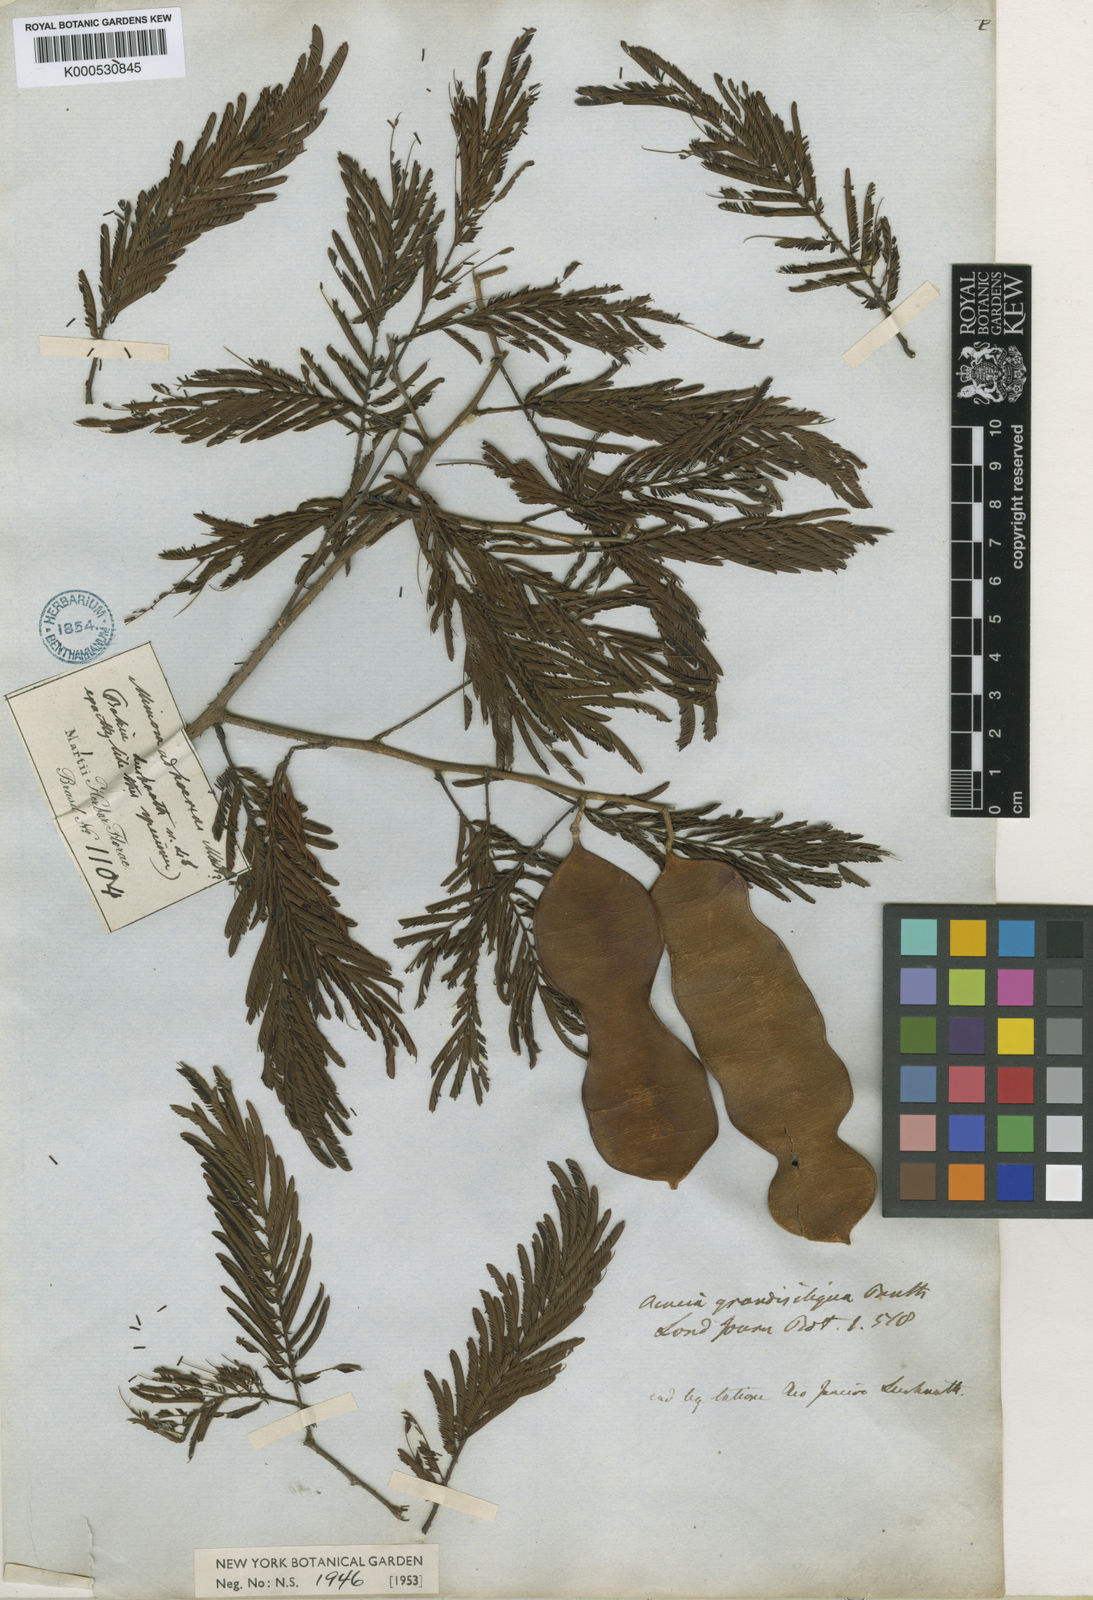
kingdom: Plantae
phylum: Tracheophyta
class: Magnoliopsida
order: Fabales
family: Fabaceae
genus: Senegalia
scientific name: Senegalia martiusiana
